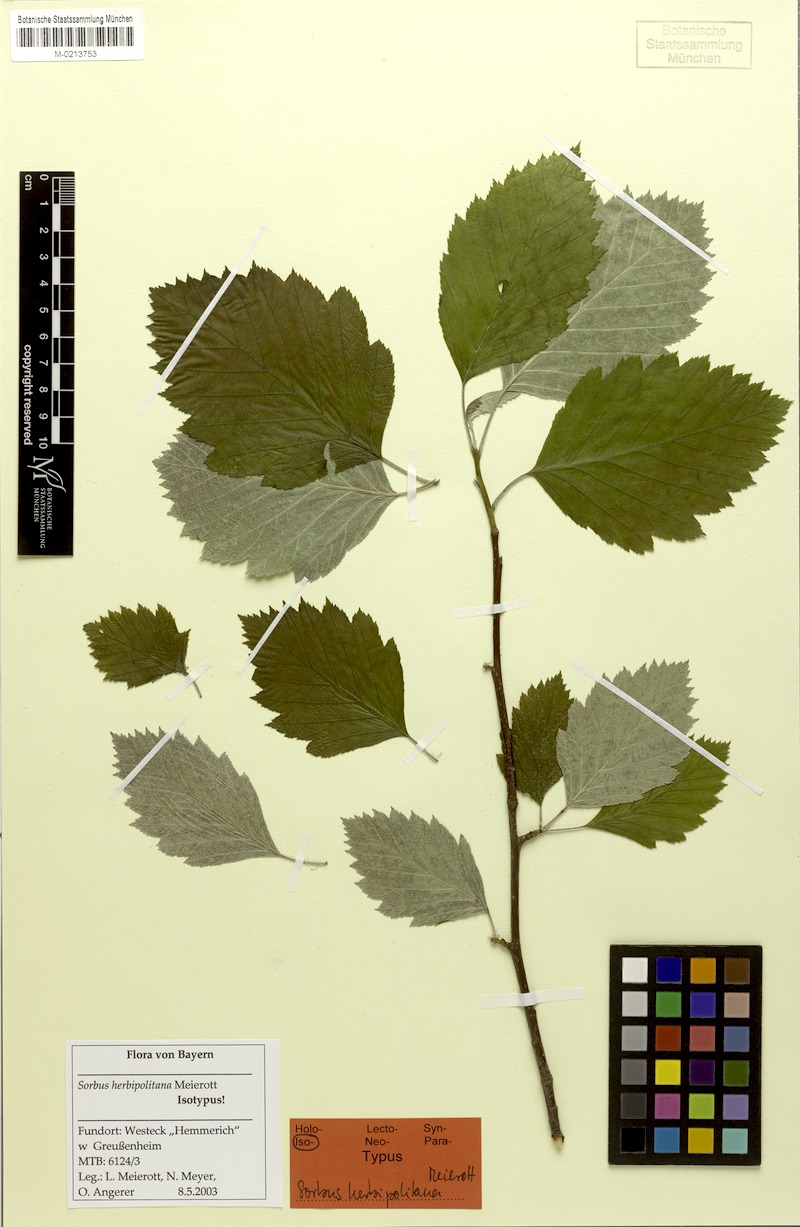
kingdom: Plantae
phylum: Tracheophyta
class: Magnoliopsida
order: Rosales
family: Rosaceae
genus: Karpatiosorbus
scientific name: Karpatiosorbus herbipolitana
